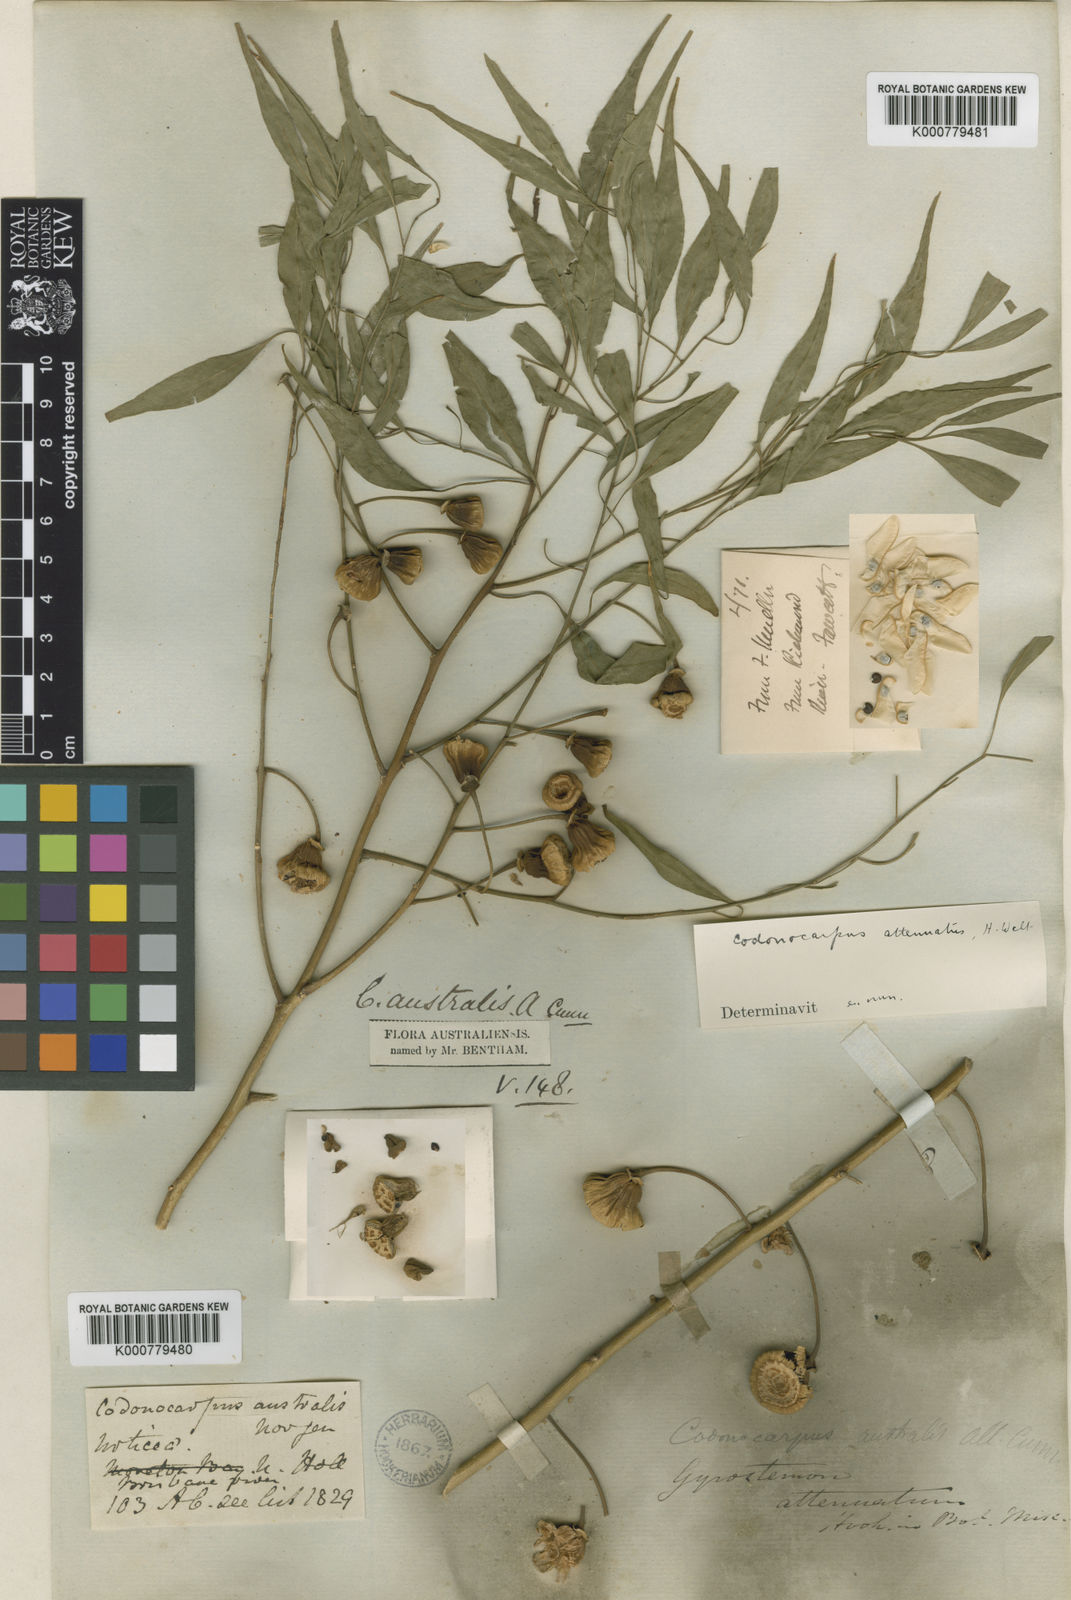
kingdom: Plantae
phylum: Tracheophyta
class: Magnoliopsida
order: Brassicales
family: Gyrostemonaceae
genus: Codonocarpus
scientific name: Codonocarpus attenuatus
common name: Bell-fruit-tree
